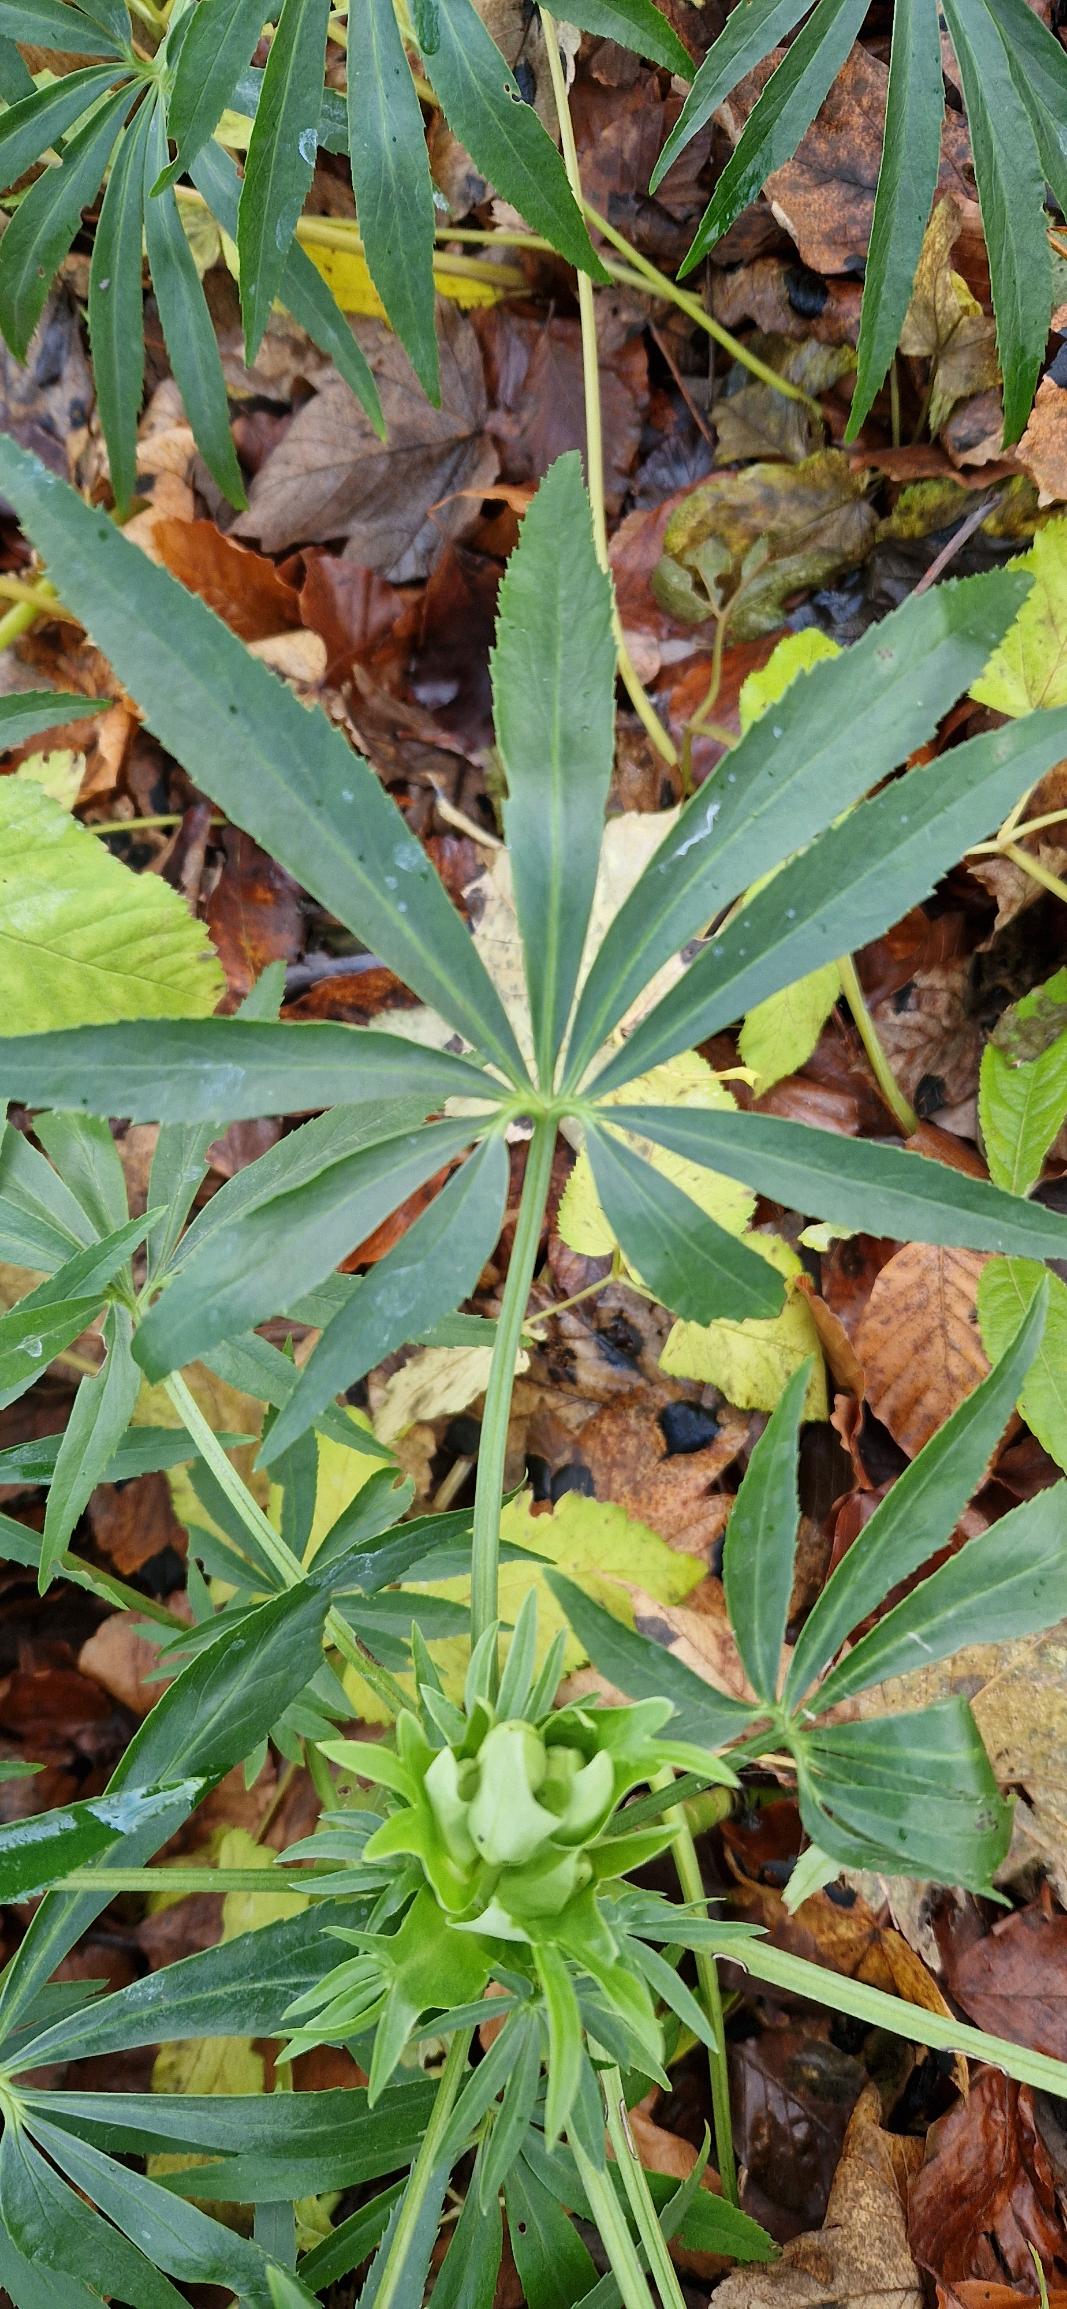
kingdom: Plantae
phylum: Tracheophyta
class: Magnoliopsida
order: Ranunculales
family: Ranunculaceae
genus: Helleborus
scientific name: Helleborus foetidus
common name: Stinkende julerose
